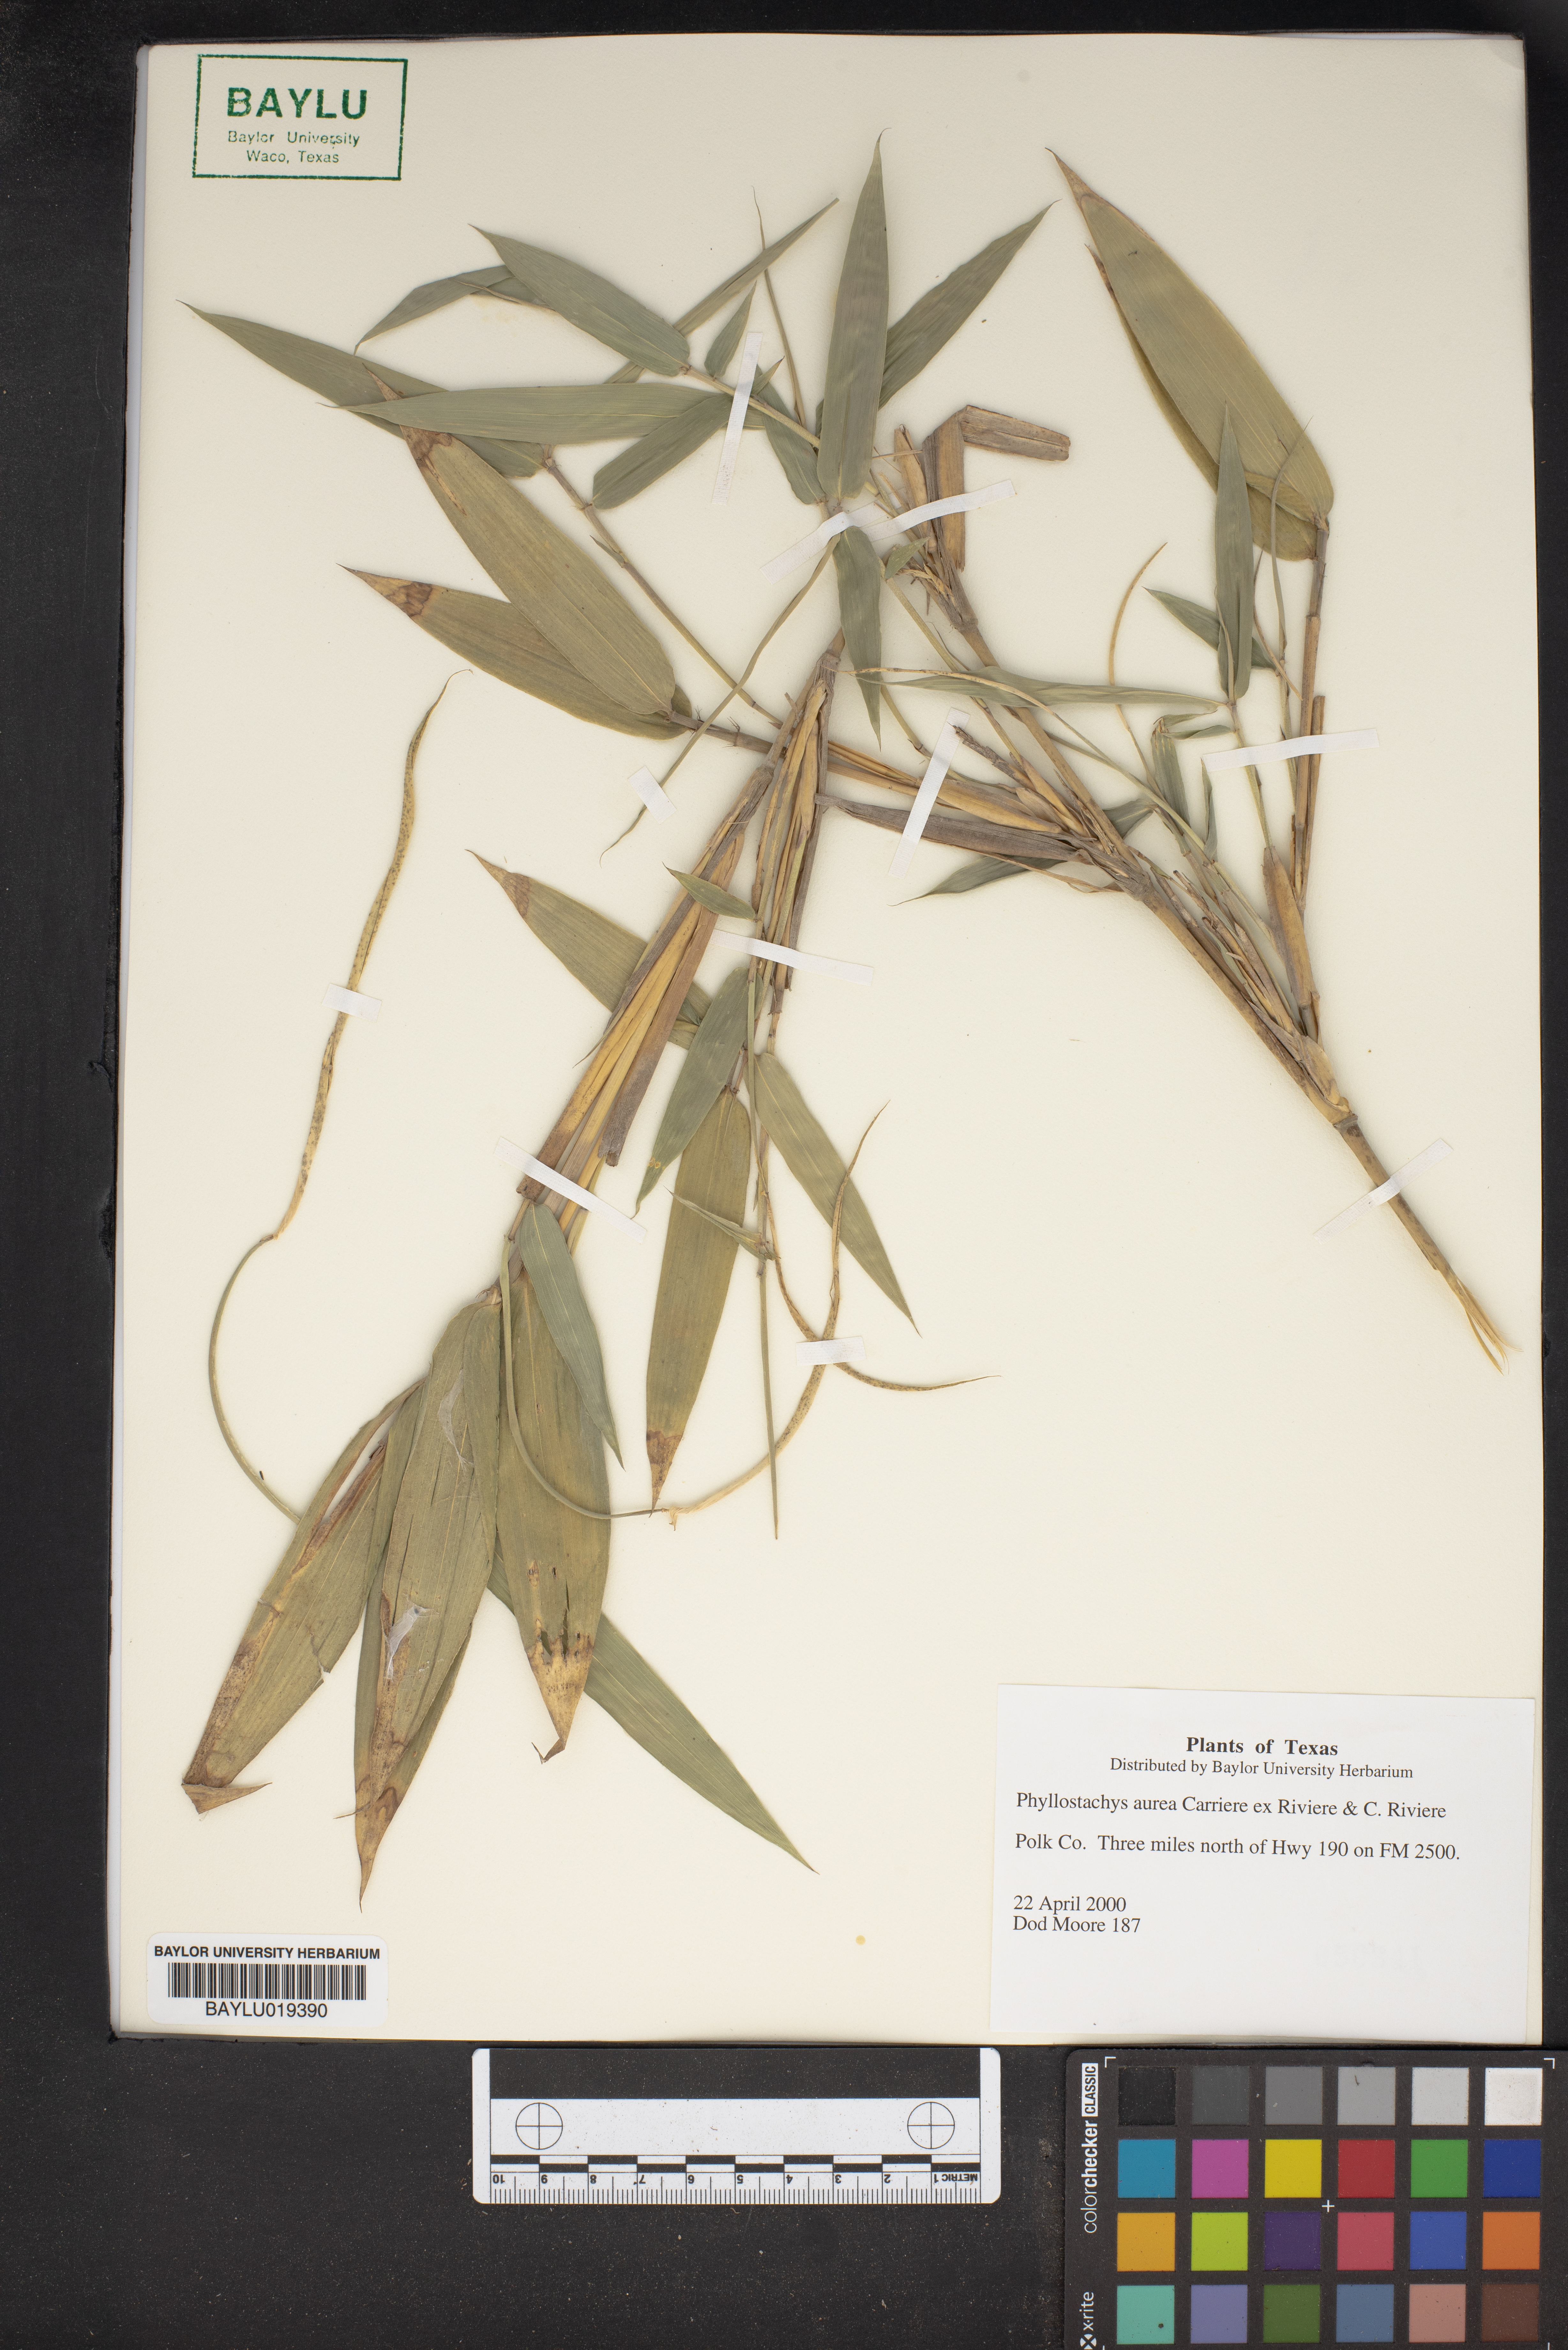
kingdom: Plantae
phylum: Tracheophyta
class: Liliopsida
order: Poales
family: Poaceae
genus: Phyllostachys
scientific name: Phyllostachys aurea
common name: Golden bamboo
